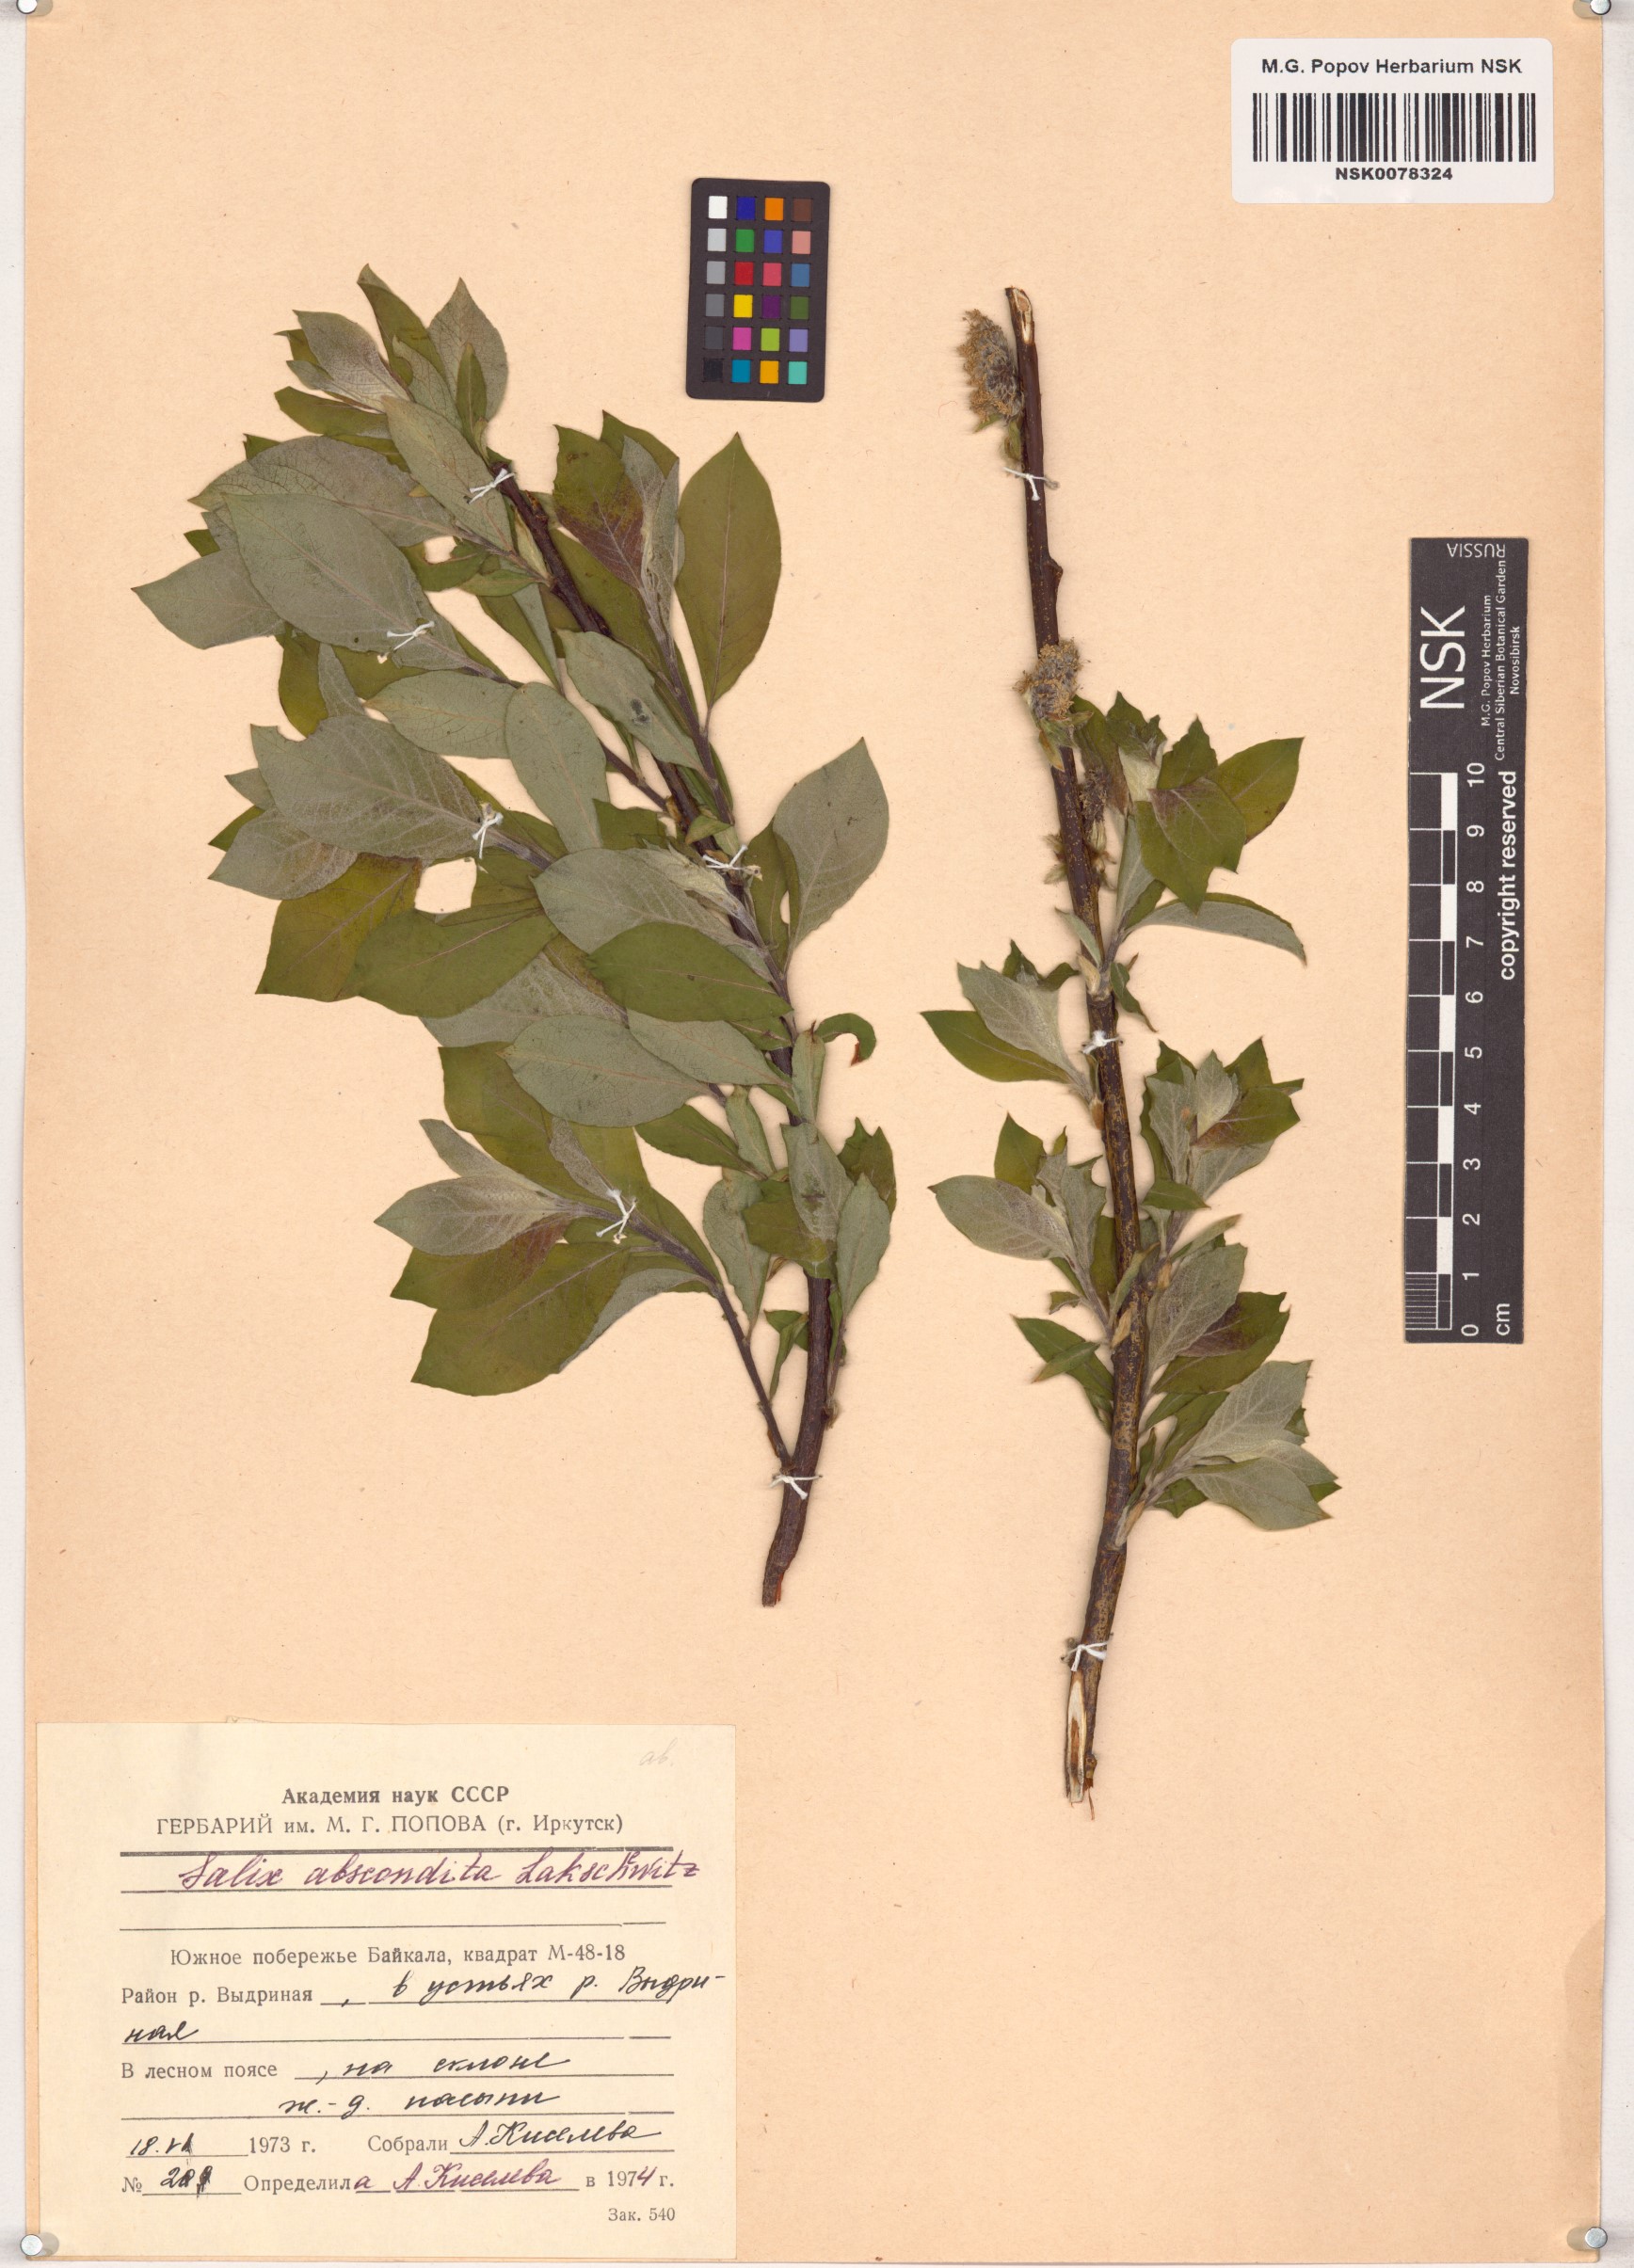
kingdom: Plantae
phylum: Tracheophyta
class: Magnoliopsida
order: Malpighiales
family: Salicaceae
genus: Salix
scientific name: Salix abscondita
